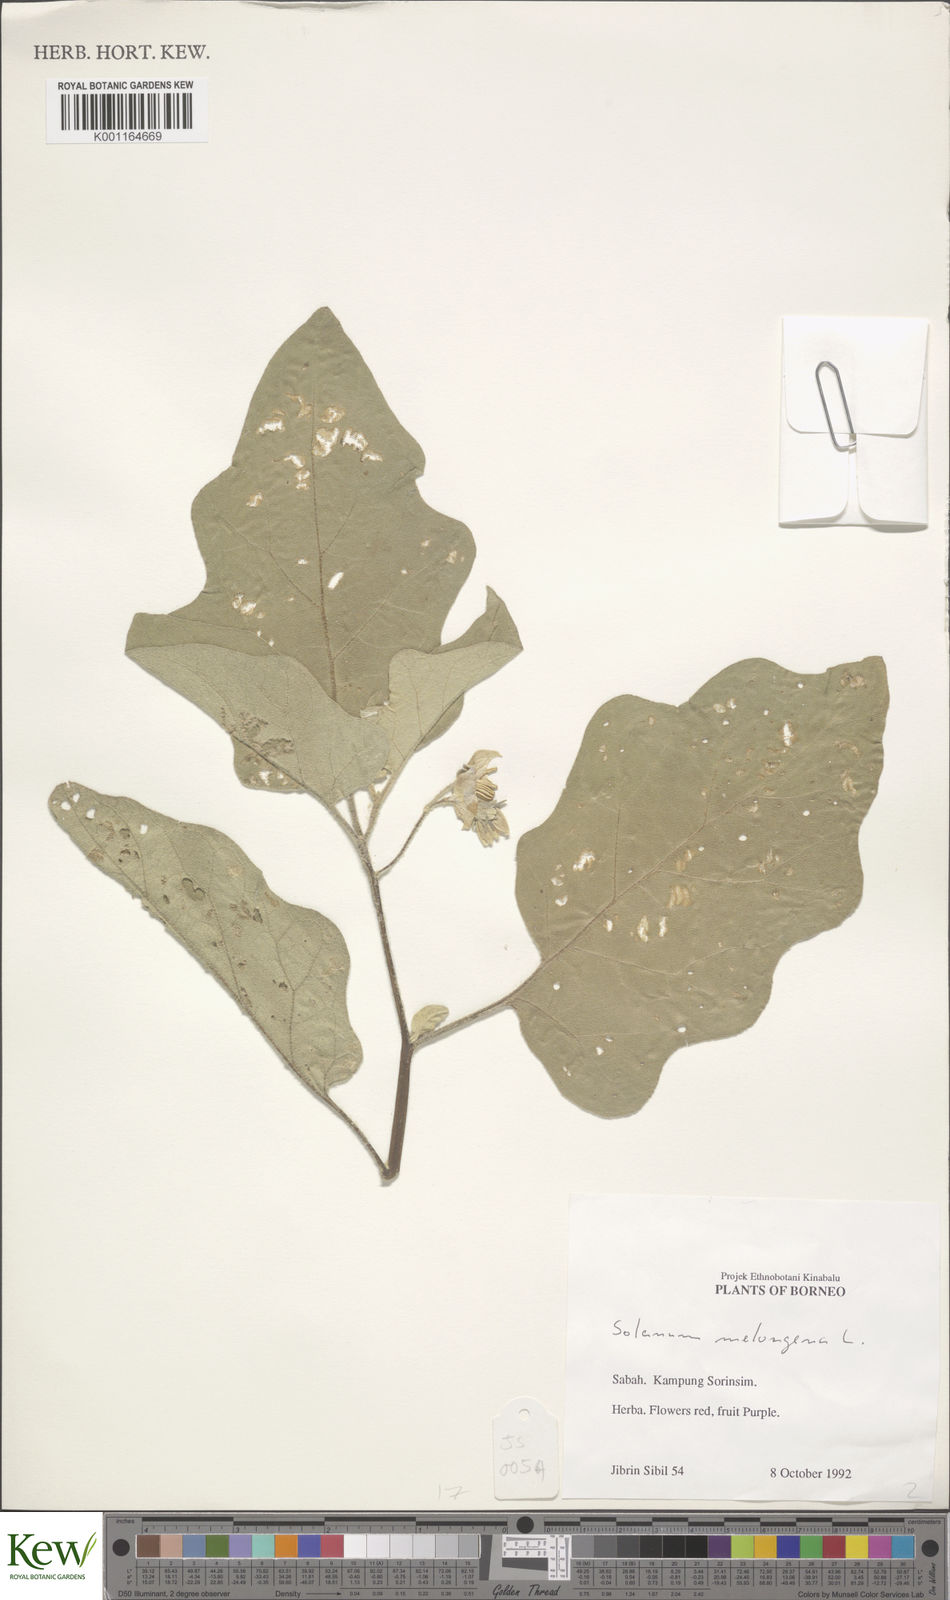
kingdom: Plantae
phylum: Tracheophyta
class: Magnoliopsida
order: Solanales
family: Solanaceae
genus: Solanum
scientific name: Solanum melongena
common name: Eggplant
